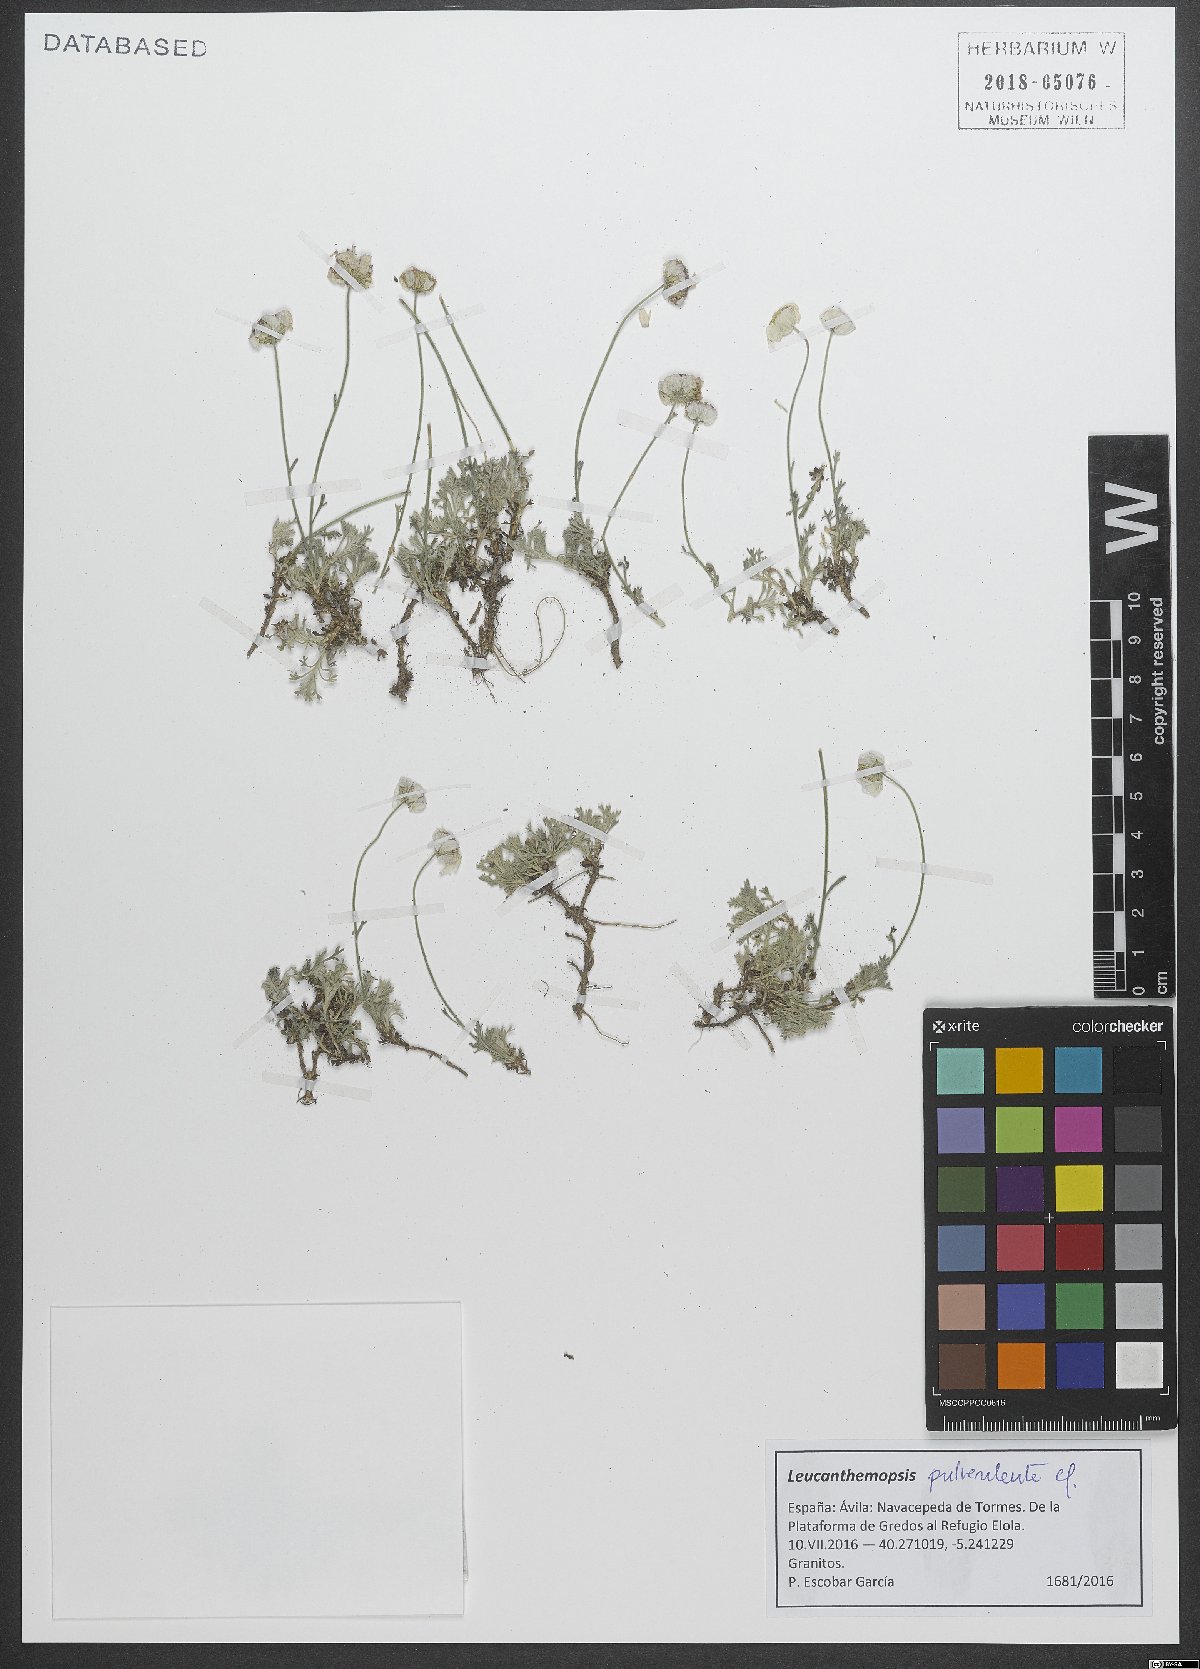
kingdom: Plantae
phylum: Tracheophyta
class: Magnoliopsida
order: Asterales
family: Asteraceae
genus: Leucanthemopsis
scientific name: Leucanthemopsis pulverulenta
